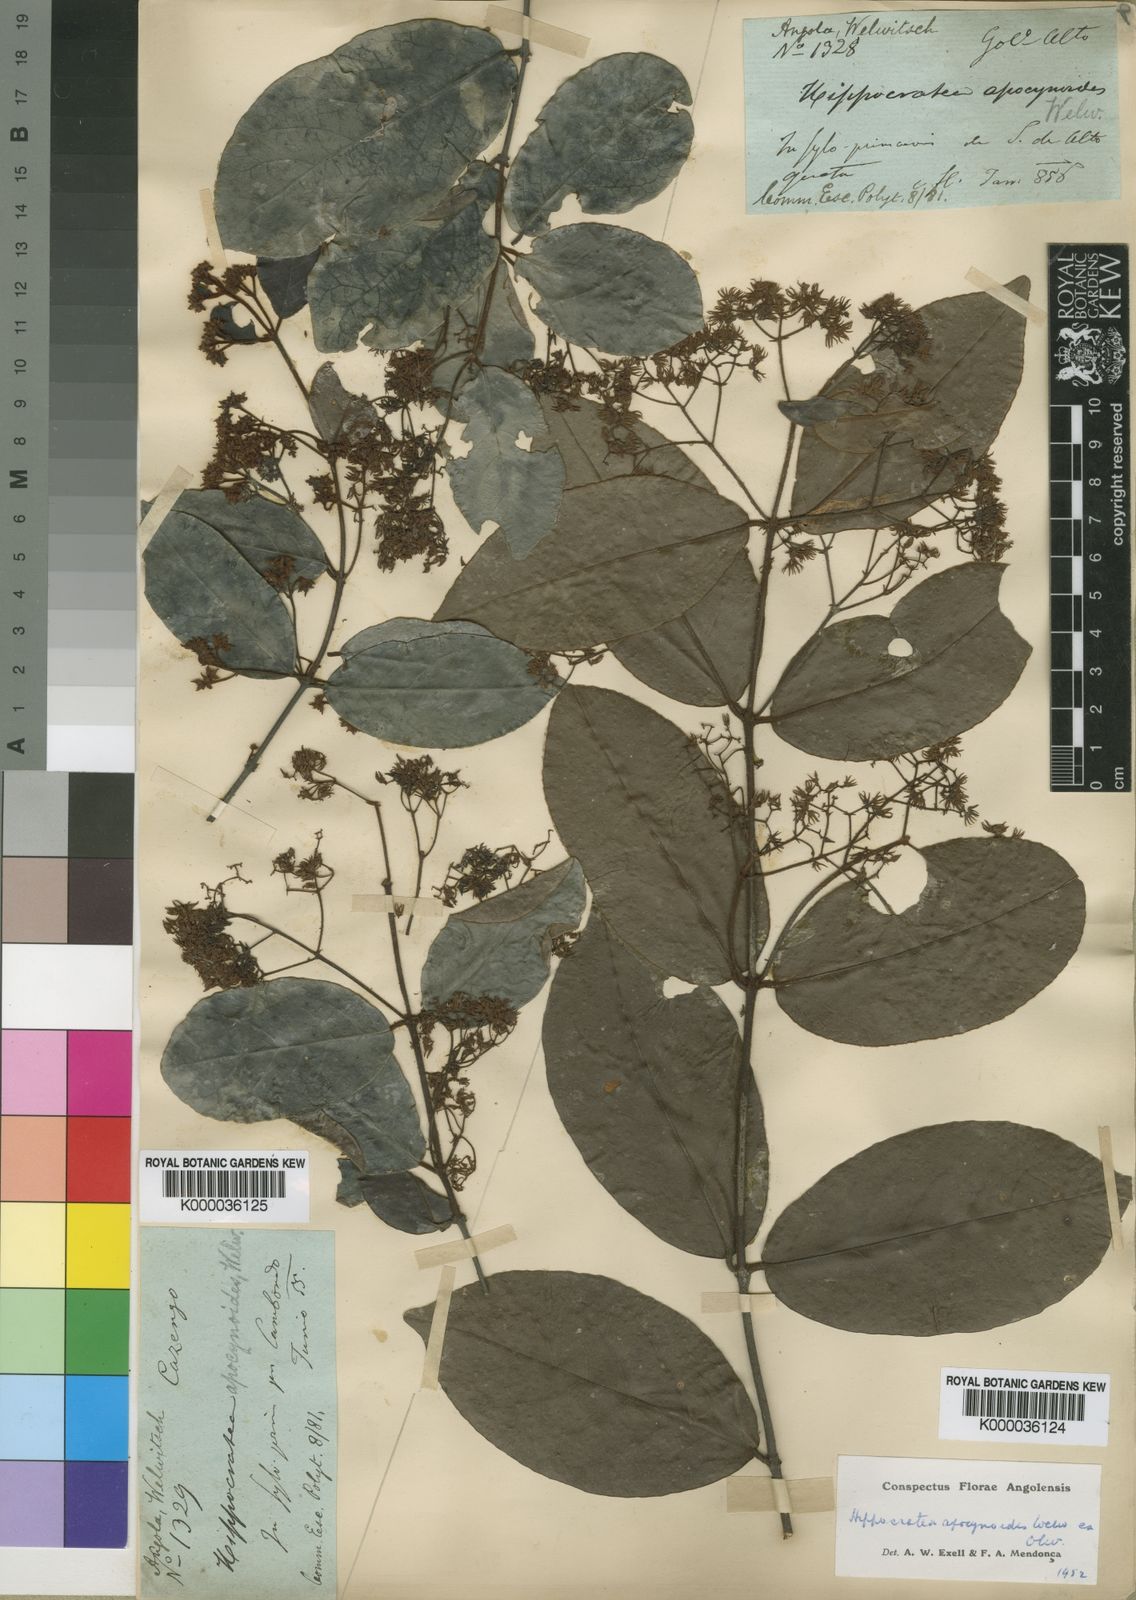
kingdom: Plantae
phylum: Tracheophyta
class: Magnoliopsida
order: Celastrales
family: Celastraceae
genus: Loeseneriella
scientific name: Loeseneriella
